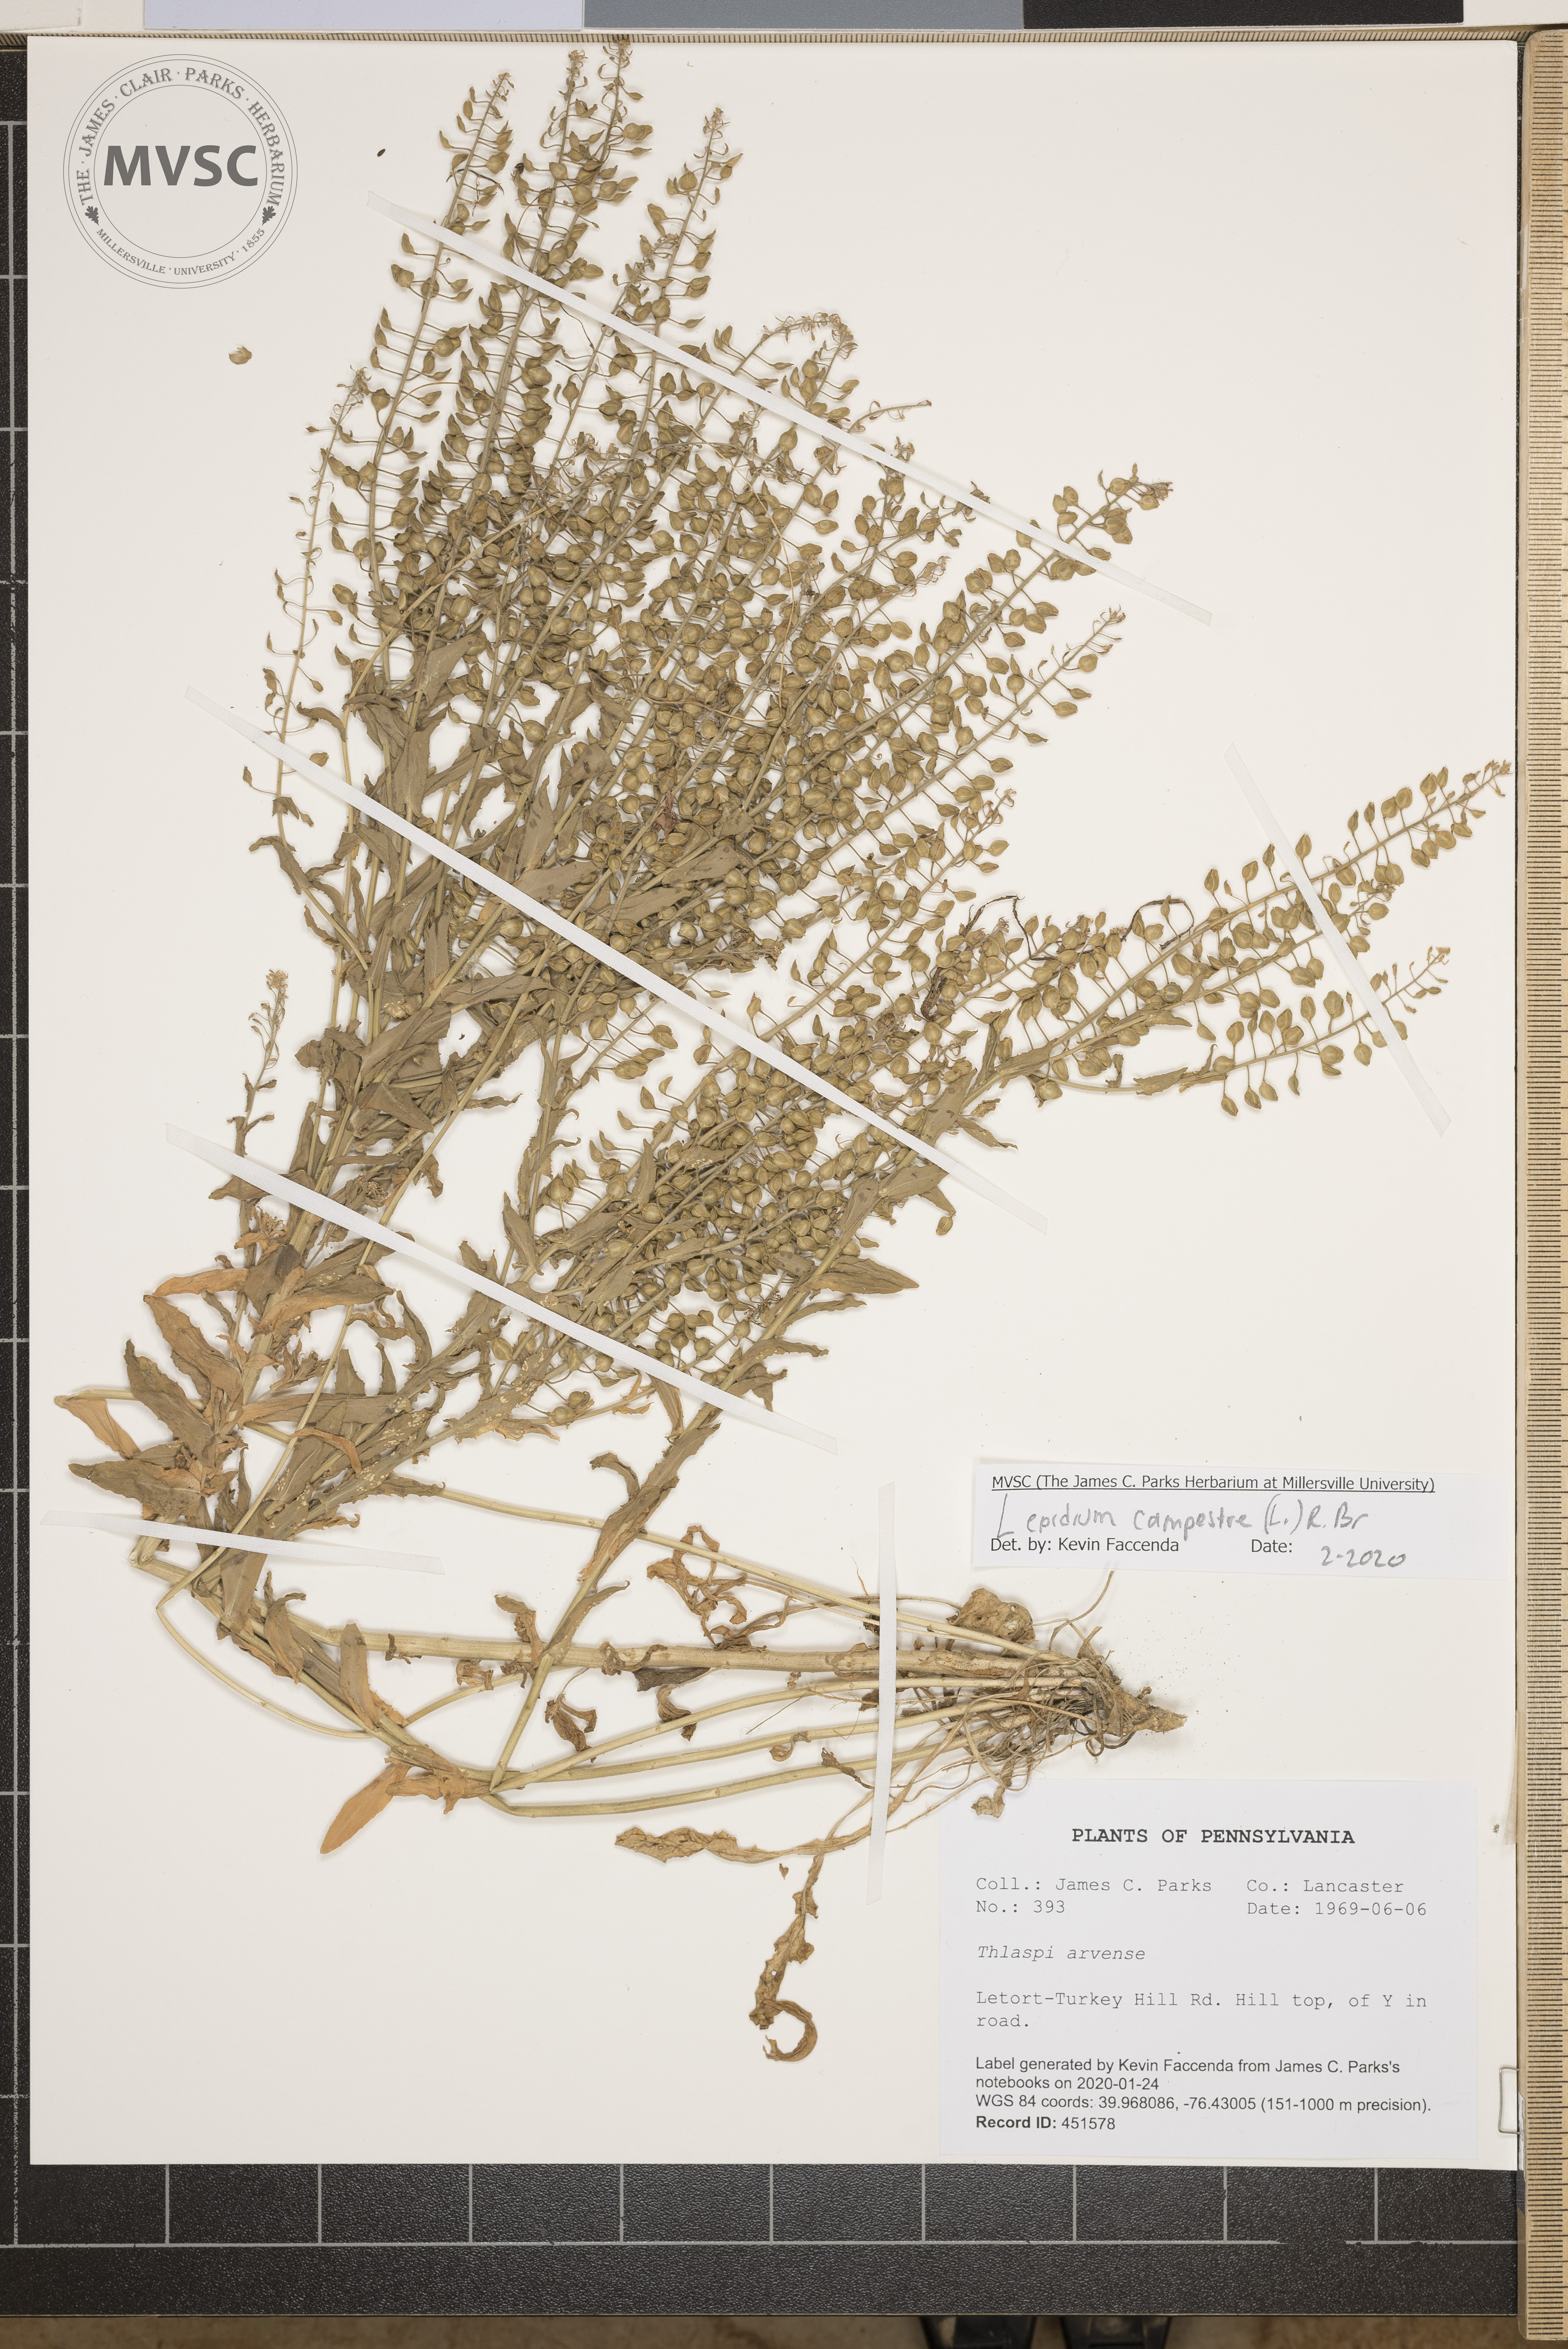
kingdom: Plantae
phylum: Tracheophyta
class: Magnoliopsida
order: Brassicales
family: Brassicaceae
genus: Lepidium
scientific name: Lepidium campestre
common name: Field pepperwort
